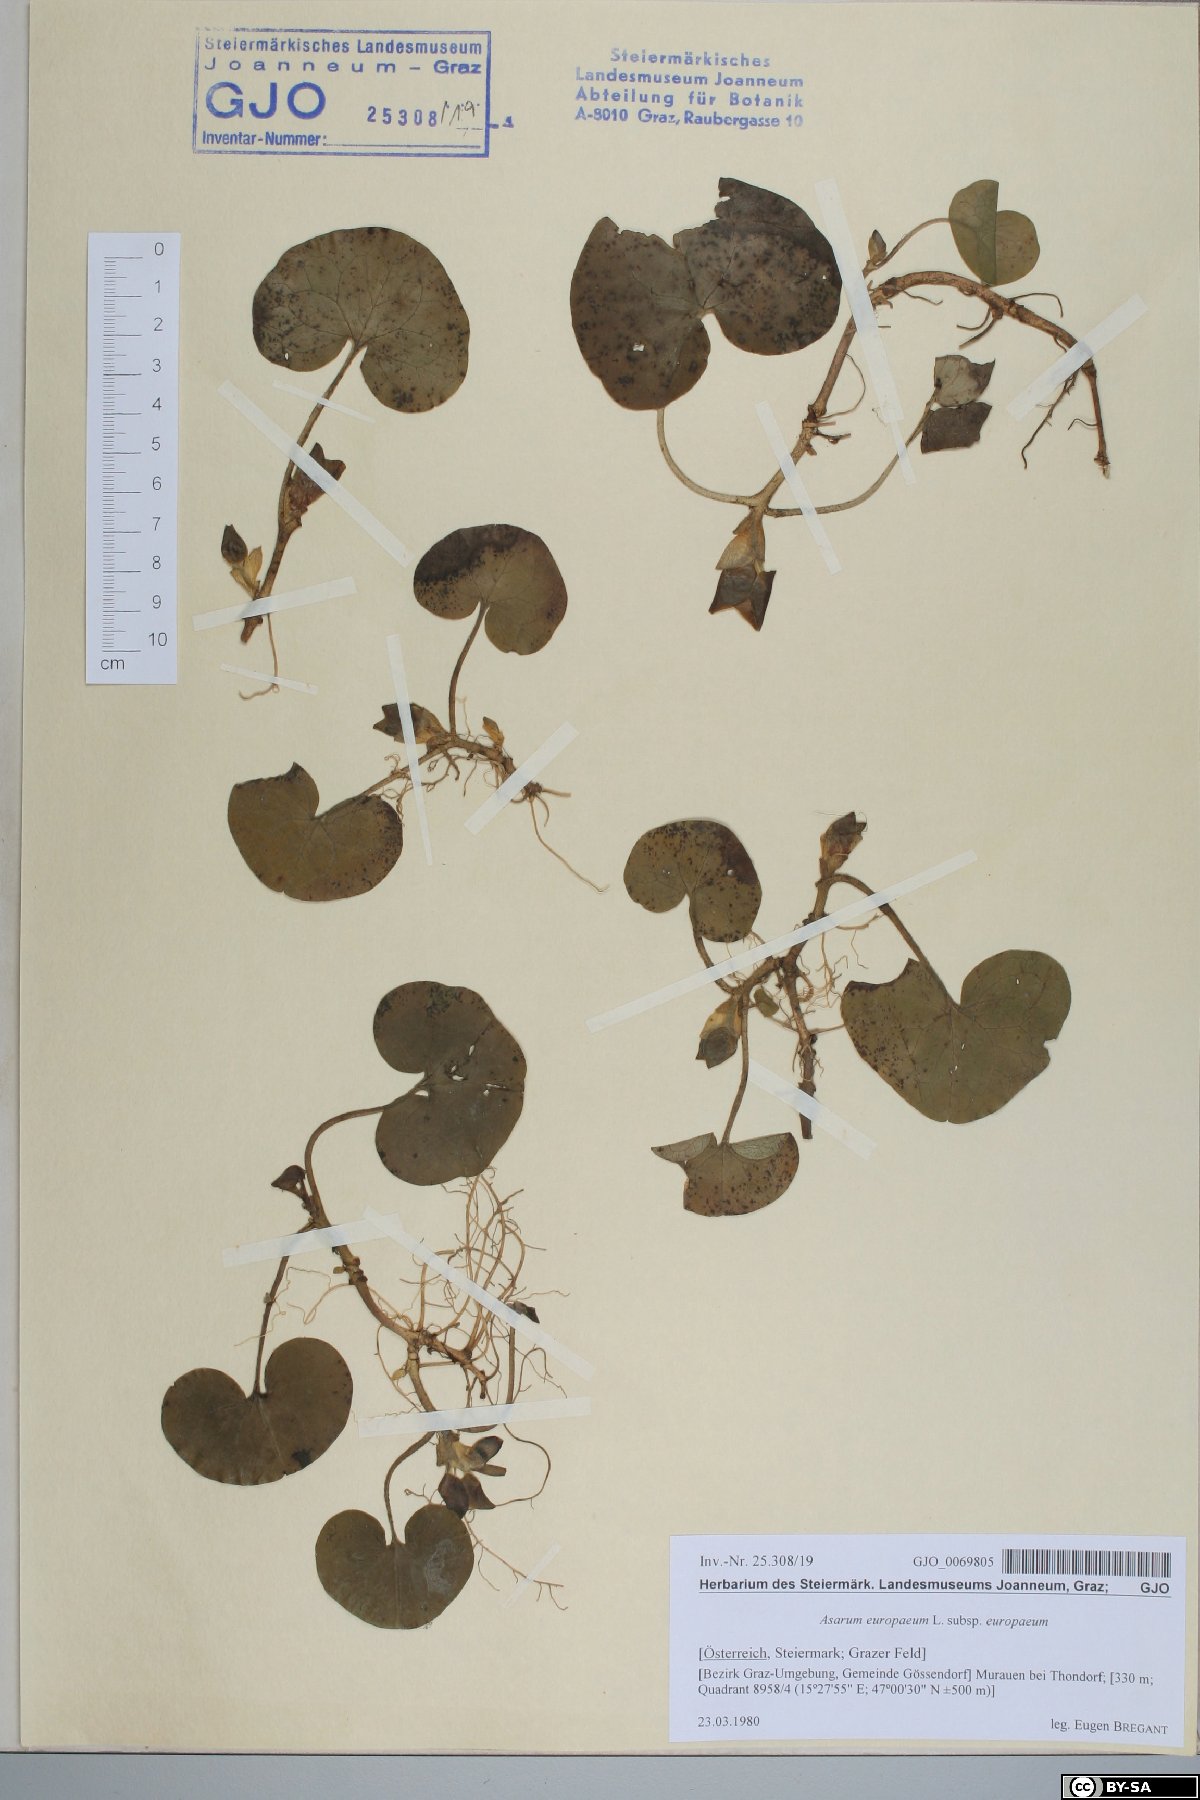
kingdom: Plantae
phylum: Tracheophyta
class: Magnoliopsida
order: Piperales
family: Aristolochiaceae
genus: Asarum
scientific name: Asarum europaeum
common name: Asarabacca
